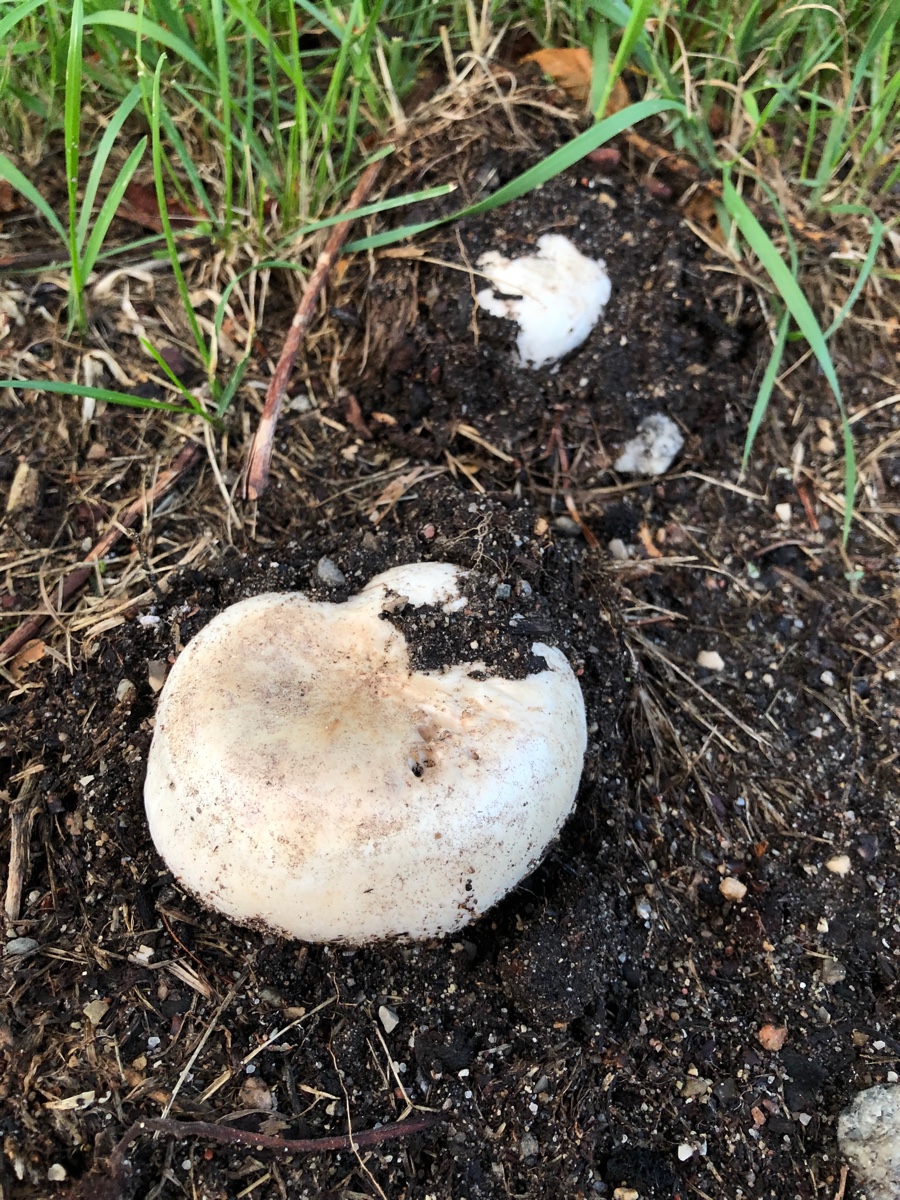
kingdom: Fungi
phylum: Basidiomycota
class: Agaricomycetes
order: Agaricales
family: Agaricaceae
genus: Agaricus
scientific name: Agaricus bitorquis
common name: vej-champignon
